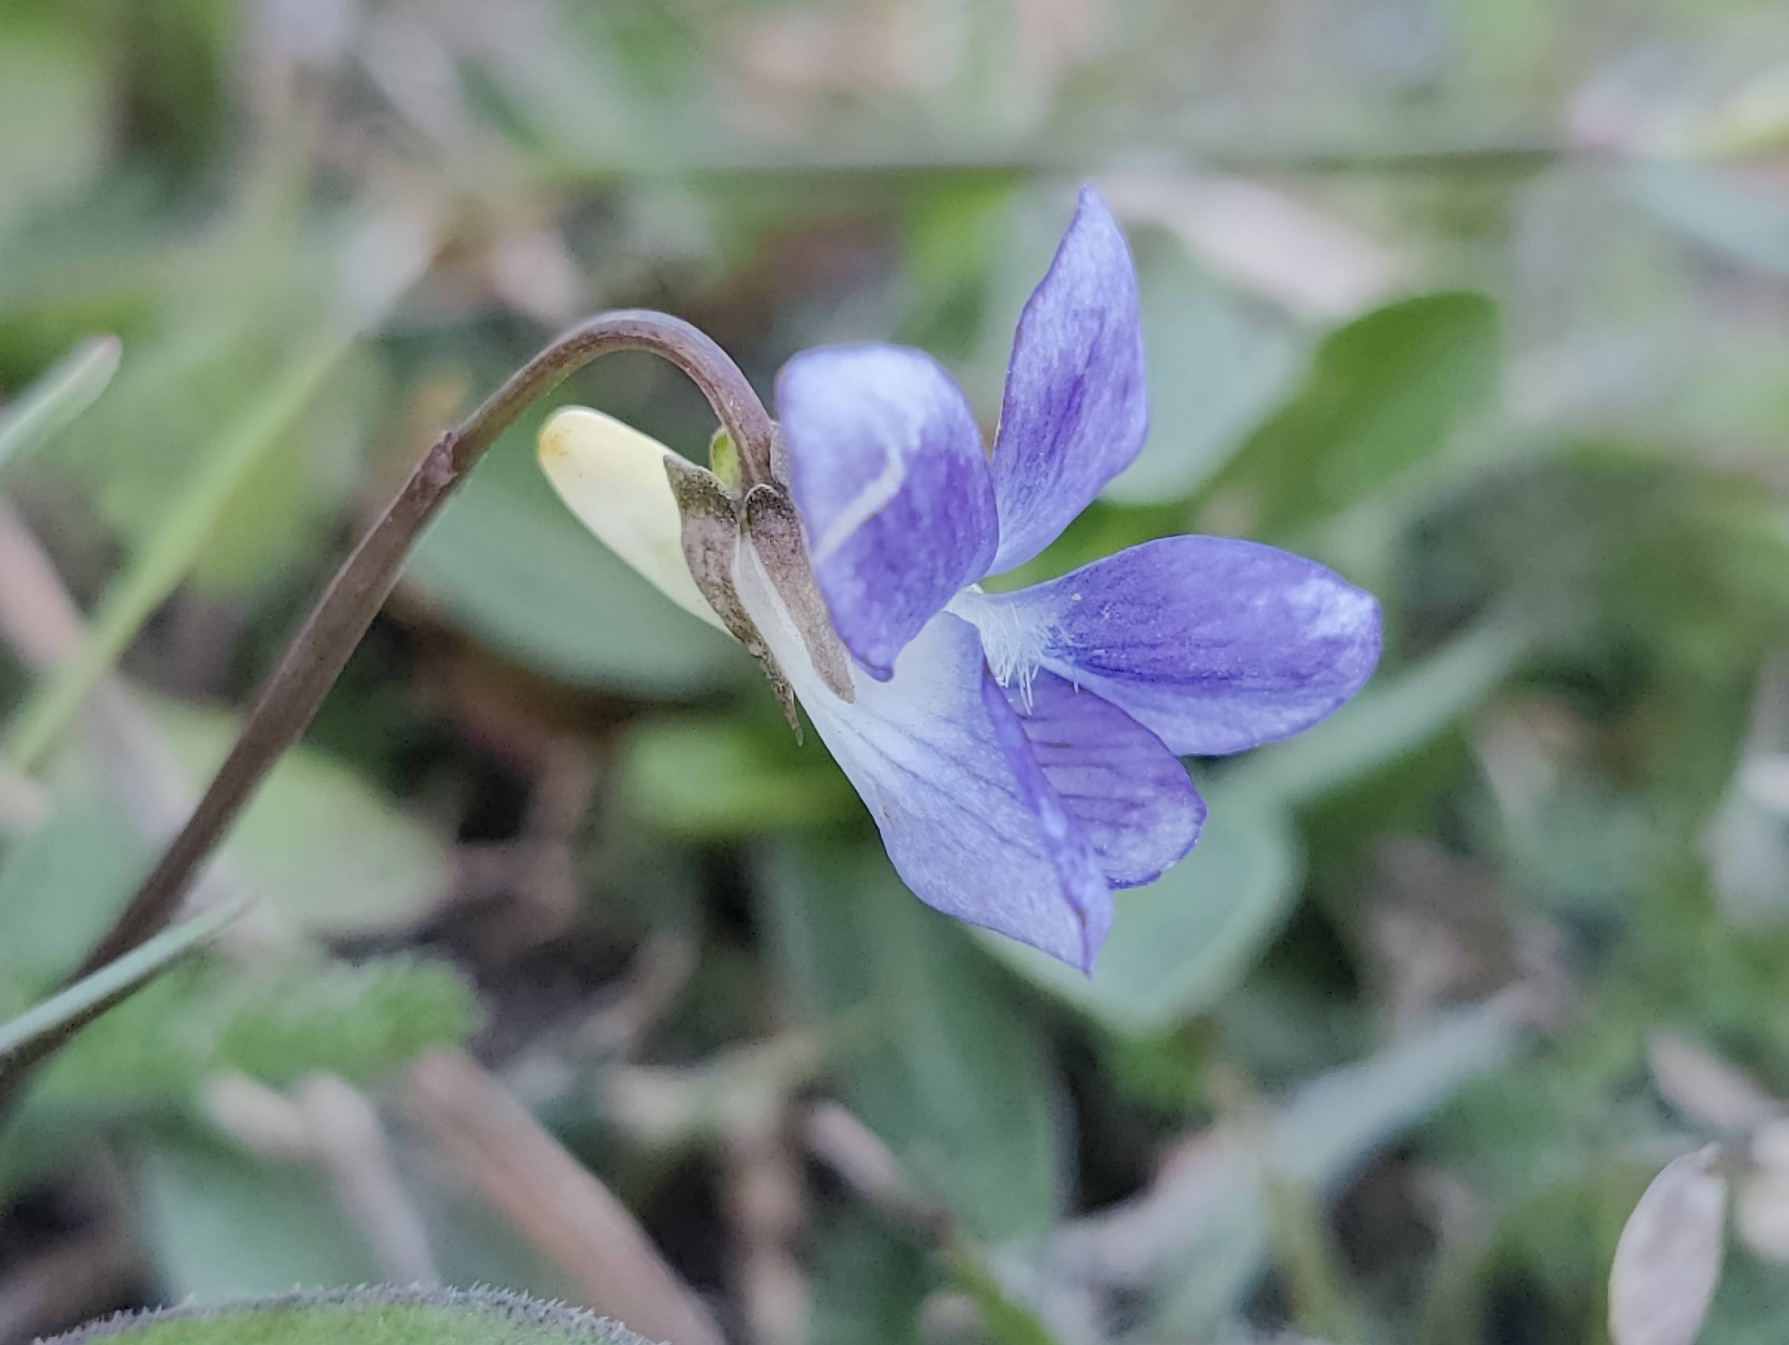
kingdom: Plantae
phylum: Tracheophyta
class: Magnoliopsida
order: Malpighiales
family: Violaceae
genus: Viola
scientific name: Viola riviniana
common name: Krat-viol
